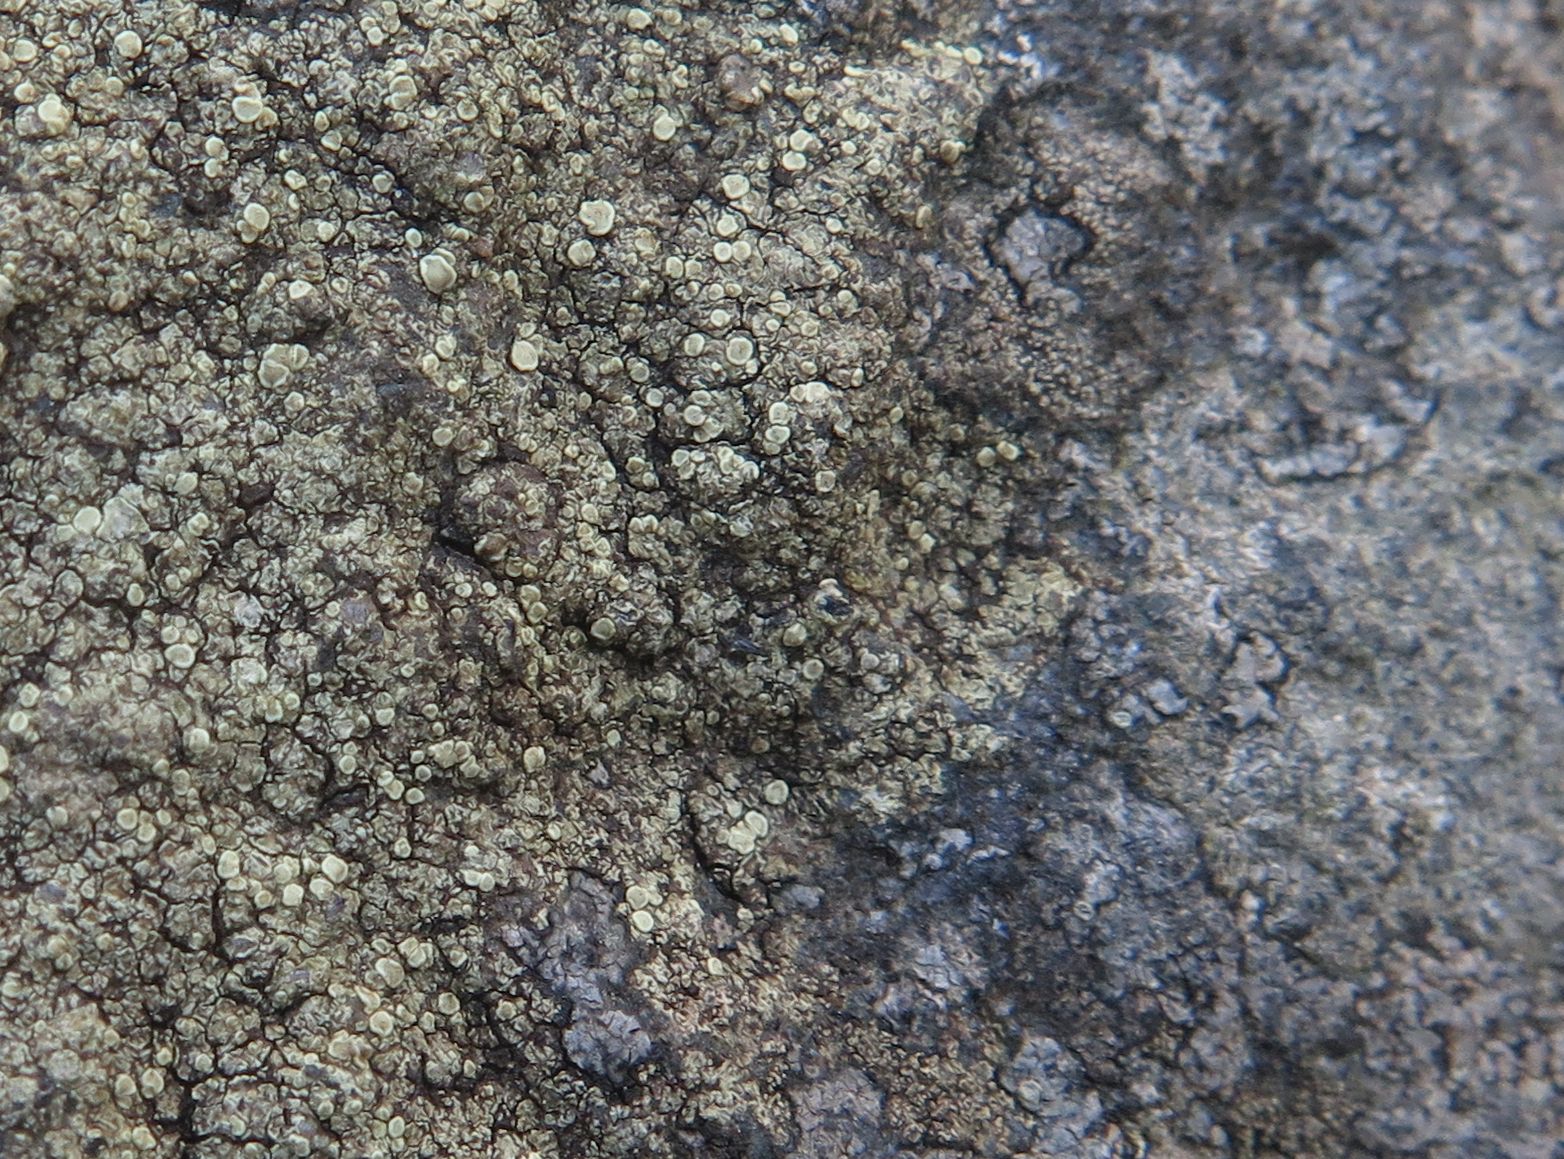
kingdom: Fungi
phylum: Ascomycota
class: Lecanoromycetes
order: Lecanorales
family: Lecanoraceae
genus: Lecanora
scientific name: Lecanora polytropa
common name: bleggrøn kantskivelav
